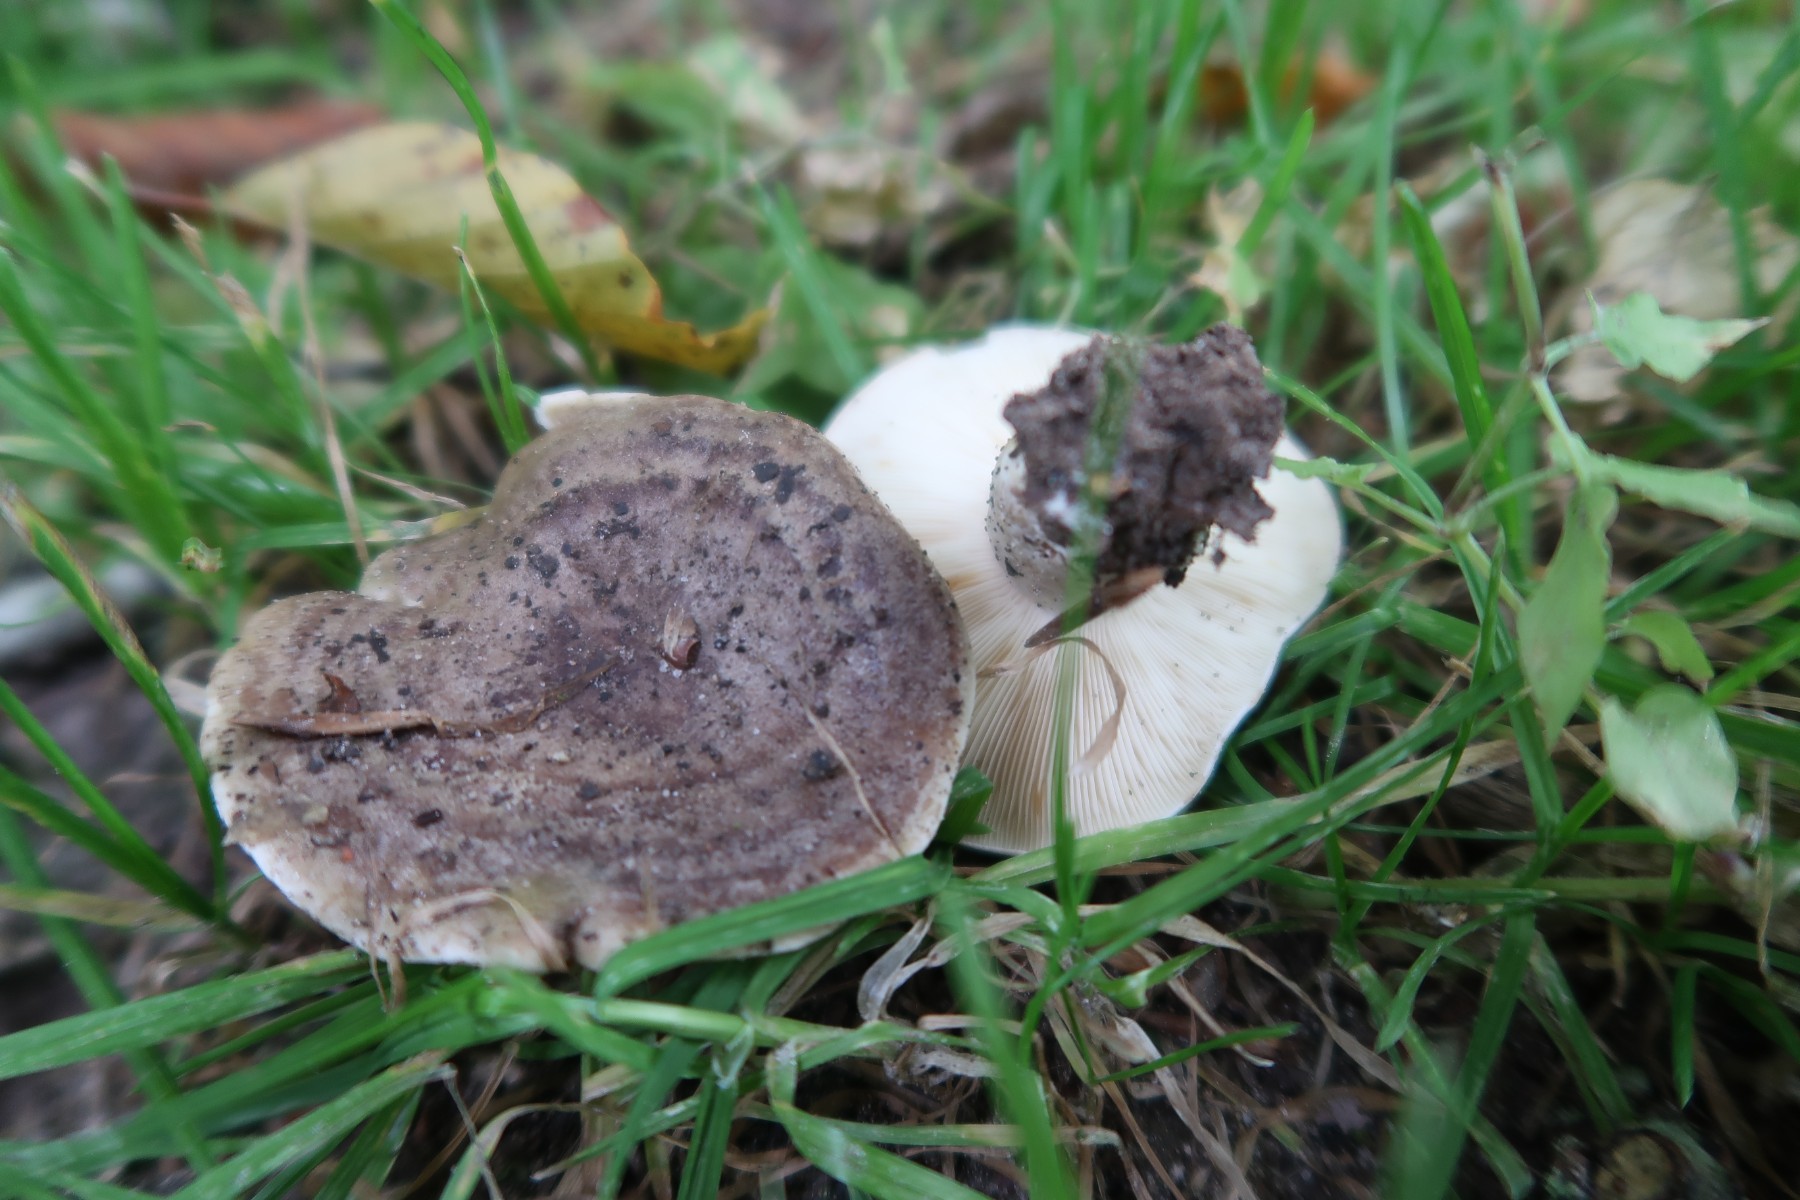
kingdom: Fungi
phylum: Basidiomycota
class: Agaricomycetes
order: Russulales
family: Russulaceae
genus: Lactarius
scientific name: Lactarius fluens
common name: lysrandet mælkehat
